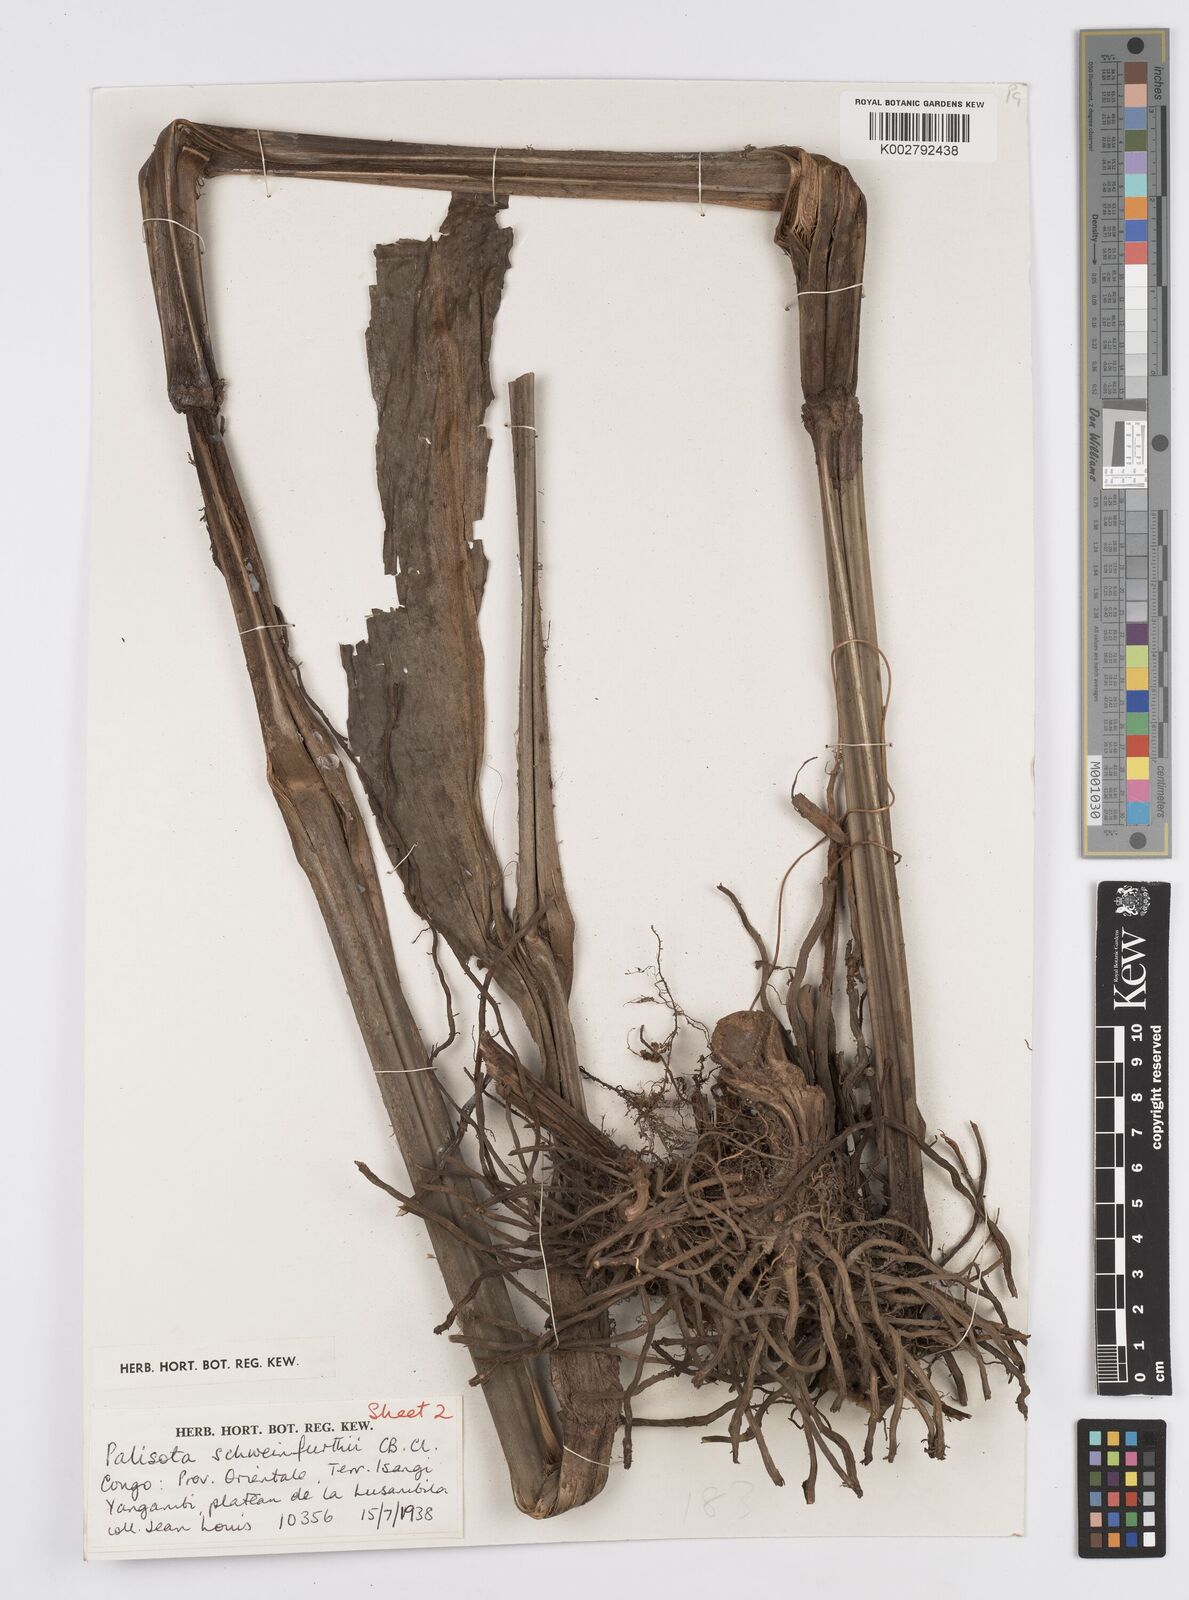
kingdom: Plantae
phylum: Tracheophyta
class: Liliopsida
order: Commelinales
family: Commelinaceae
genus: Palisota
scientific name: Palisota schweinfurthii
